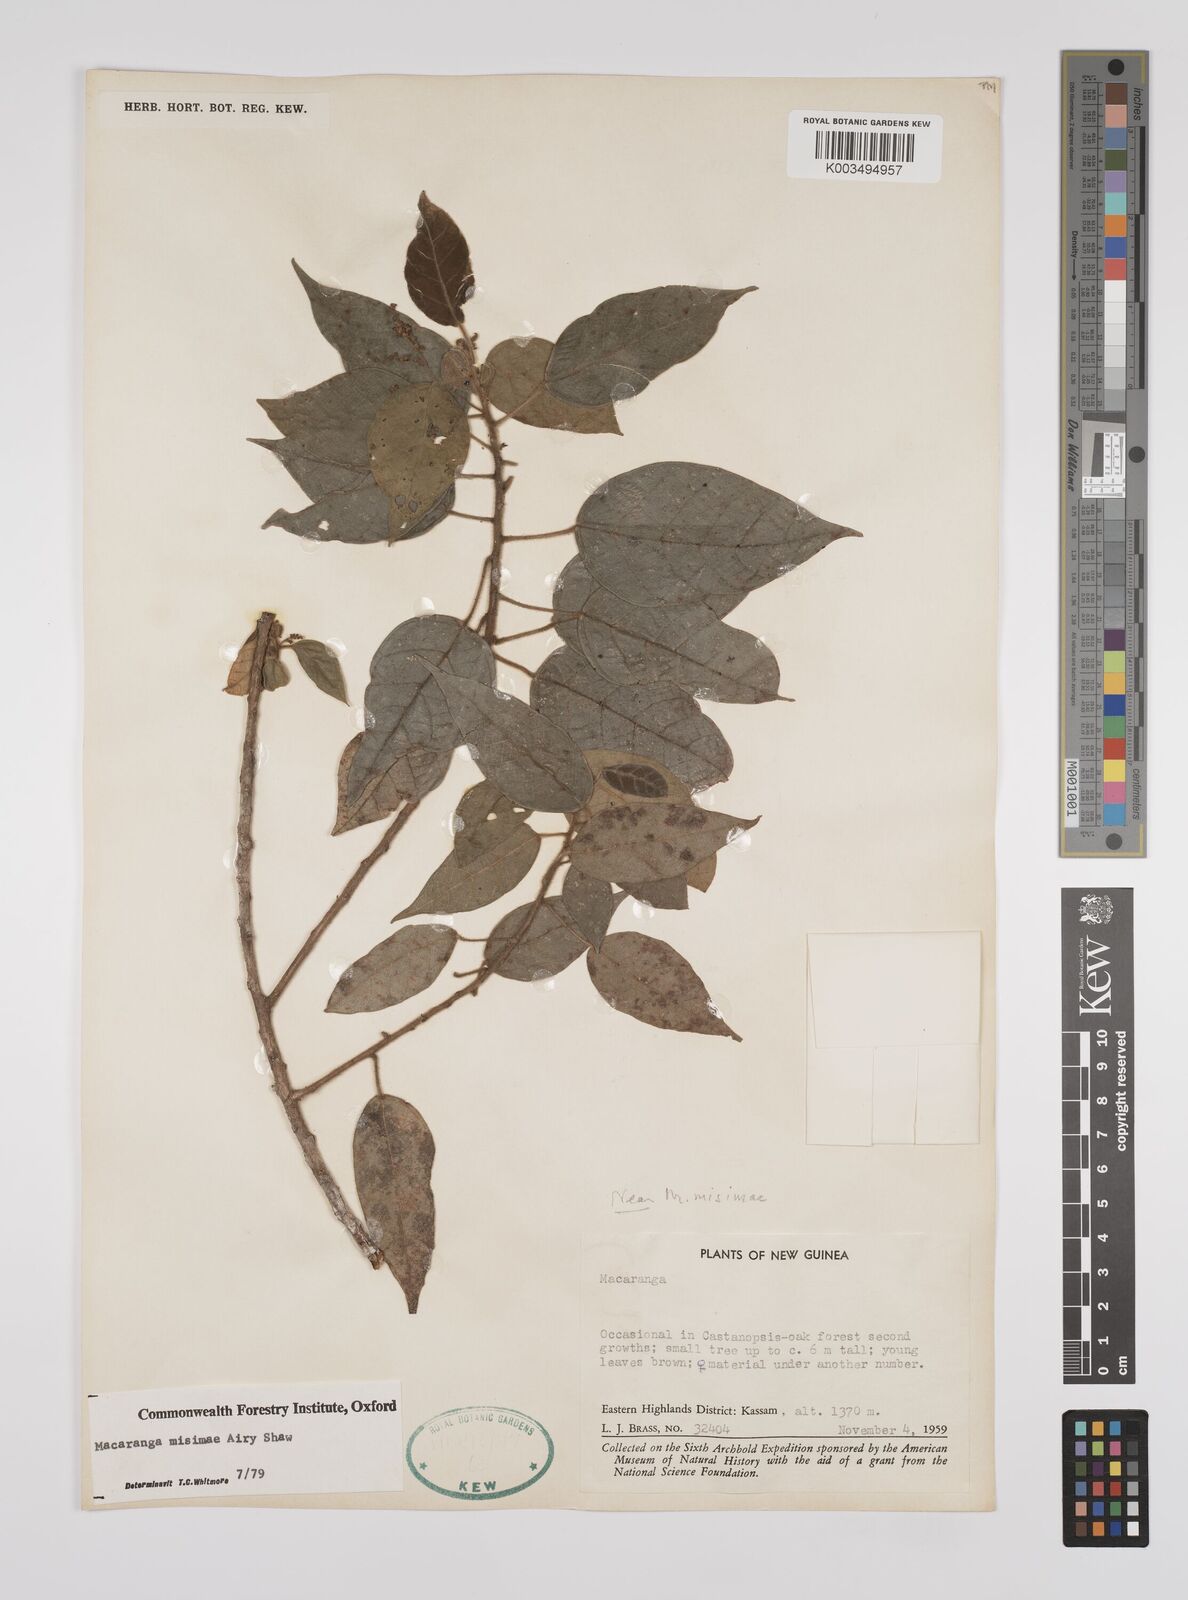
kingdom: Plantae
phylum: Tracheophyta
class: Magnoliopsida
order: Malpighiales
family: Euphorbiaceae
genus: Macaranga
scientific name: Macaranga misimae
